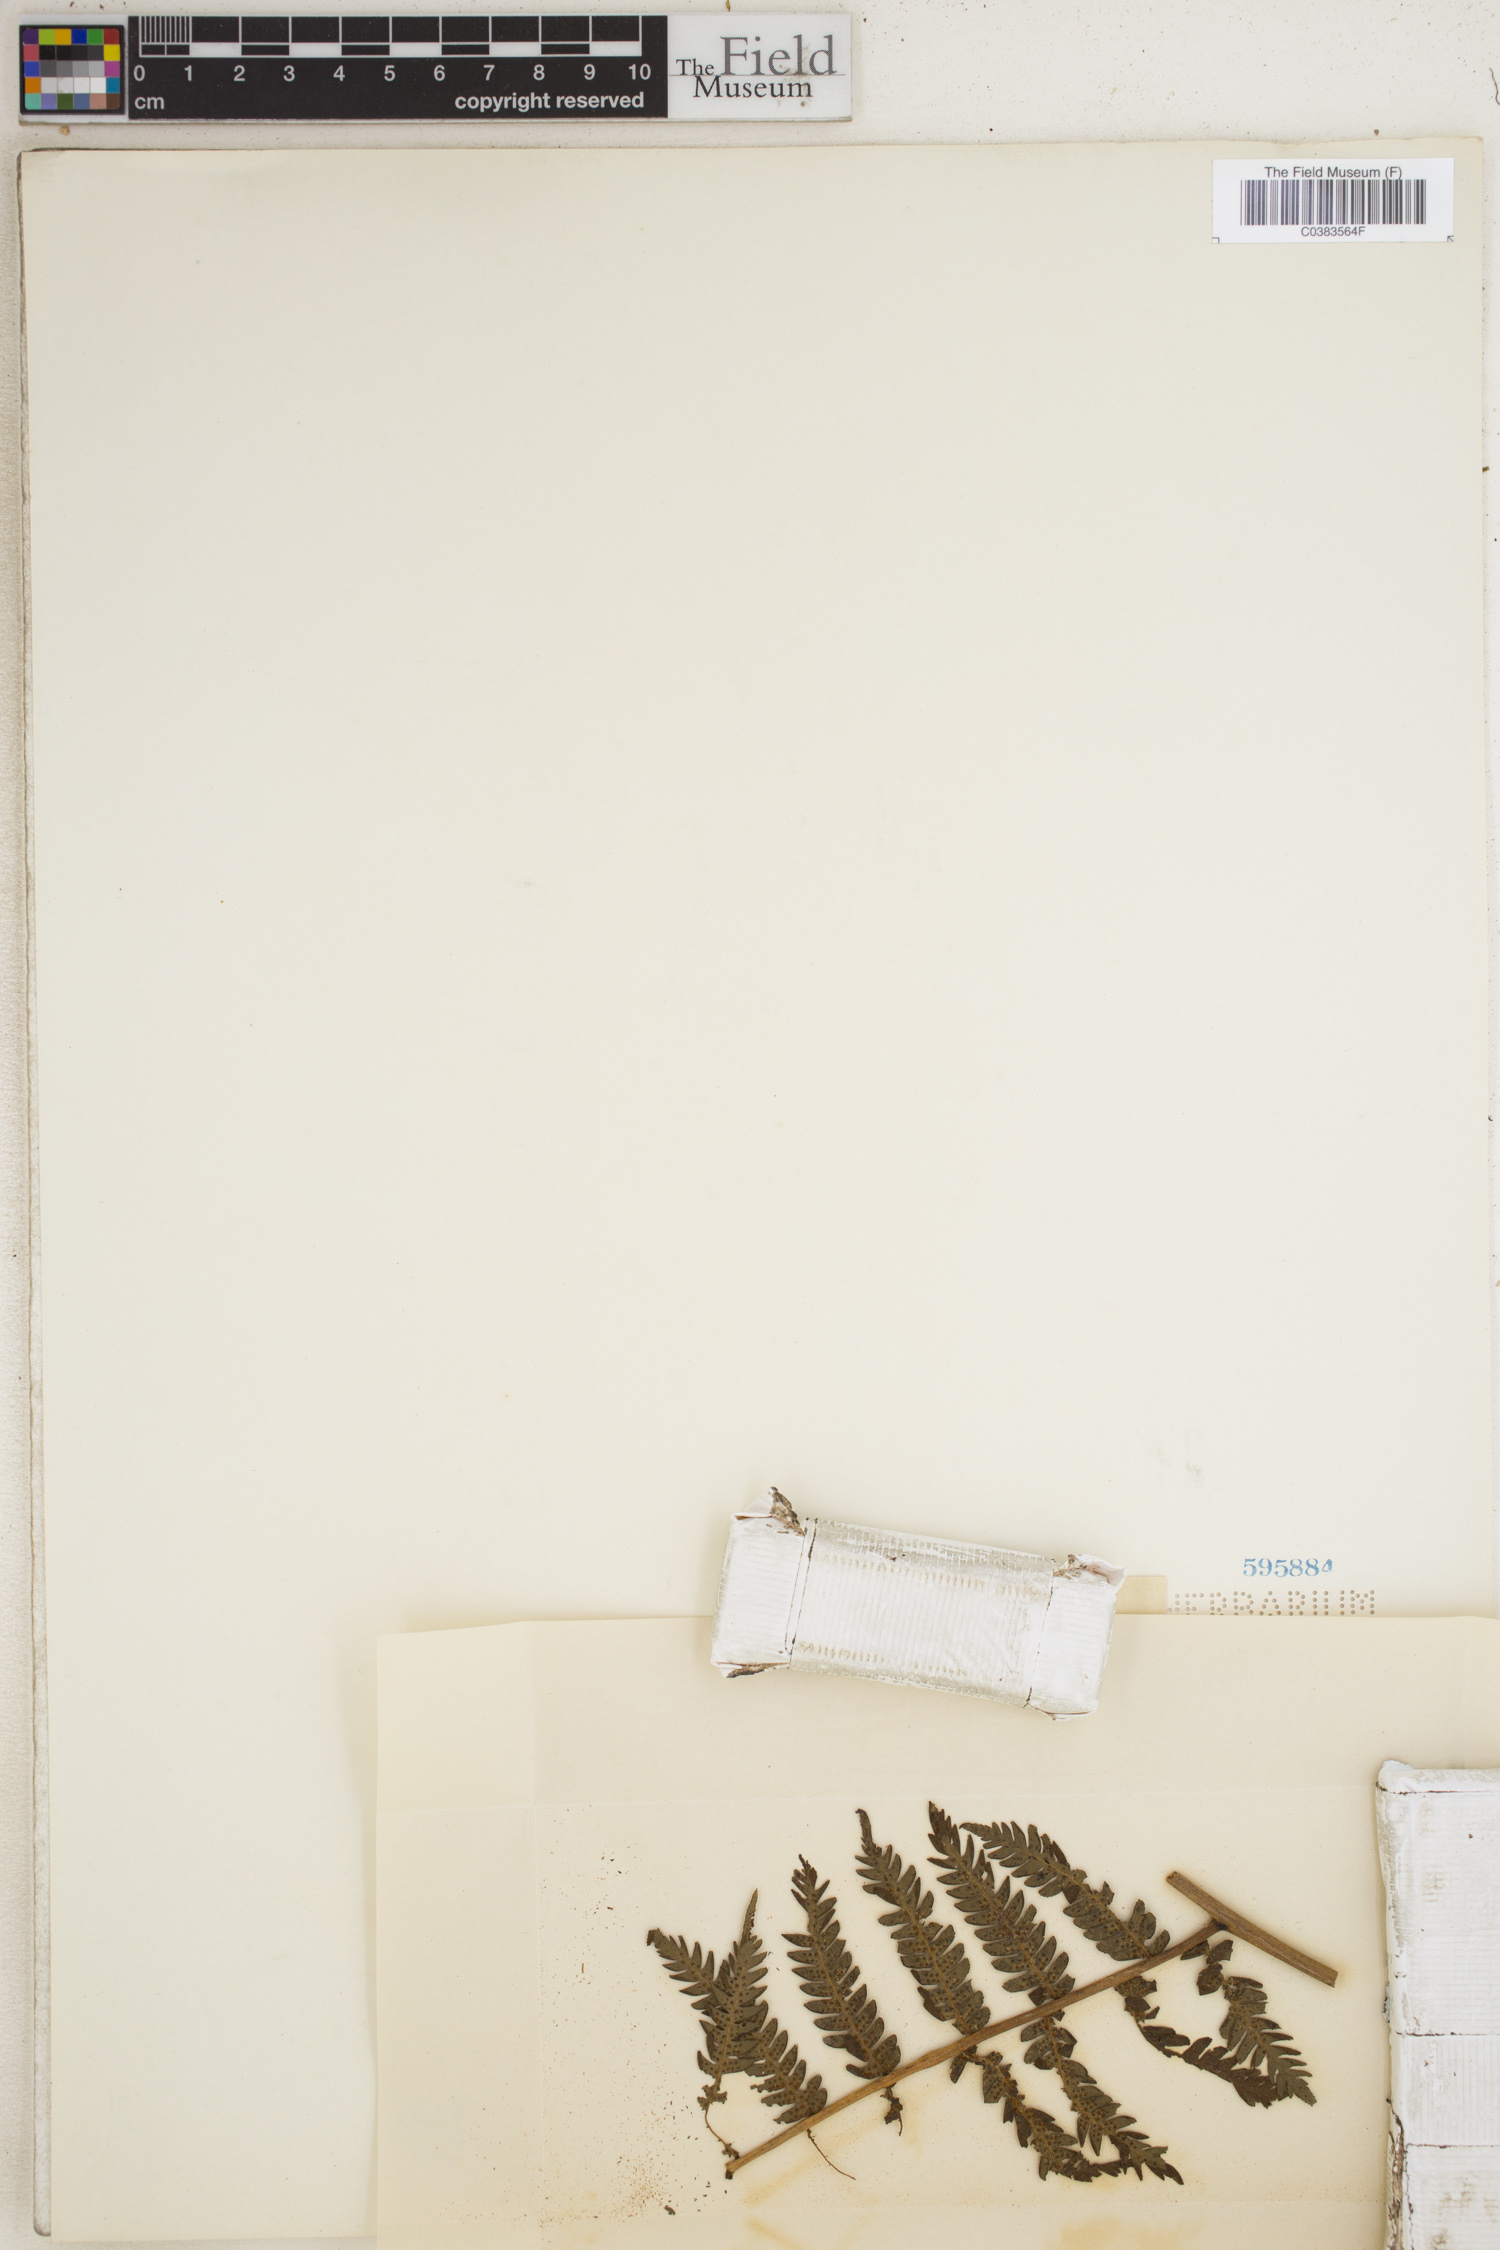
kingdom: Plantae
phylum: Tracheophyta
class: Polypodiopsida
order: Cyatheales
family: Cyatheaceae
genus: Alsophila
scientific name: Alsophila
